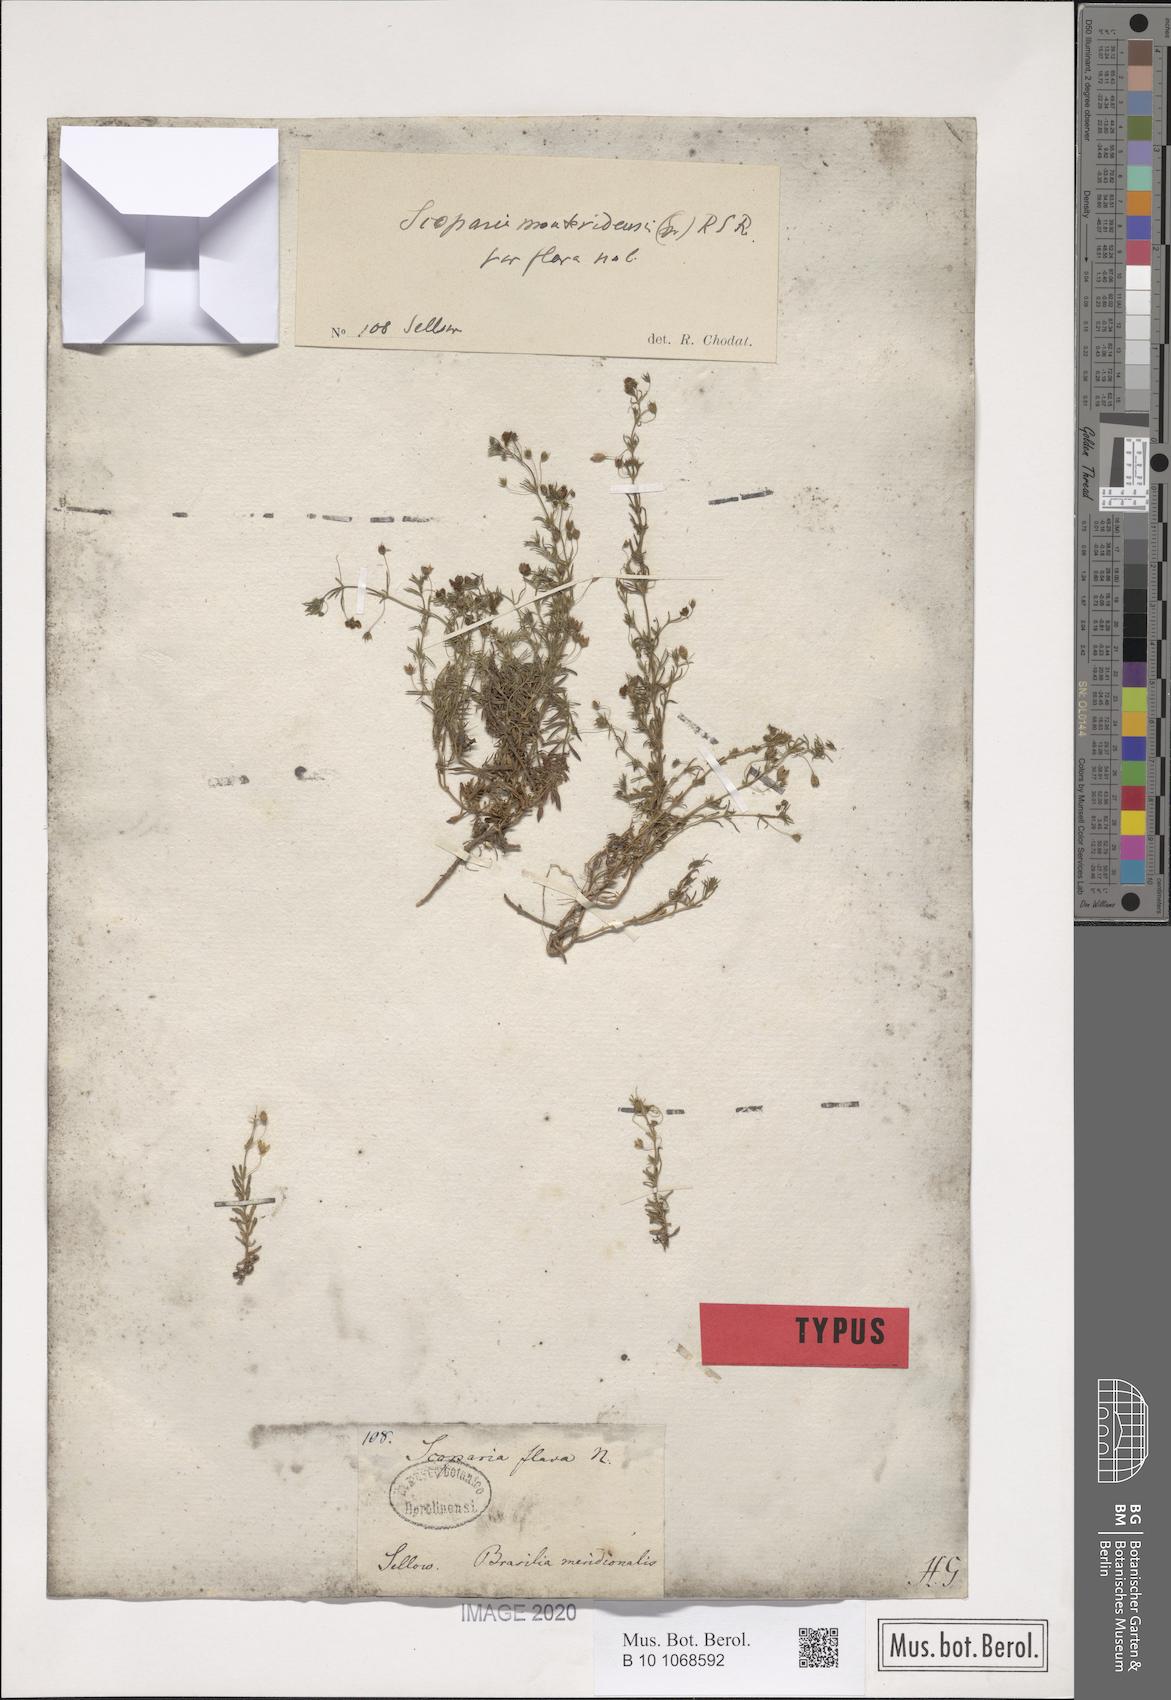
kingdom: Plantae
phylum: Tracheophyta
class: Magnoliopsida
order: Lamiales
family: Plantaginaceae
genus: Scoparia
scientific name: Scoparia montevidensis
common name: Broomwort
